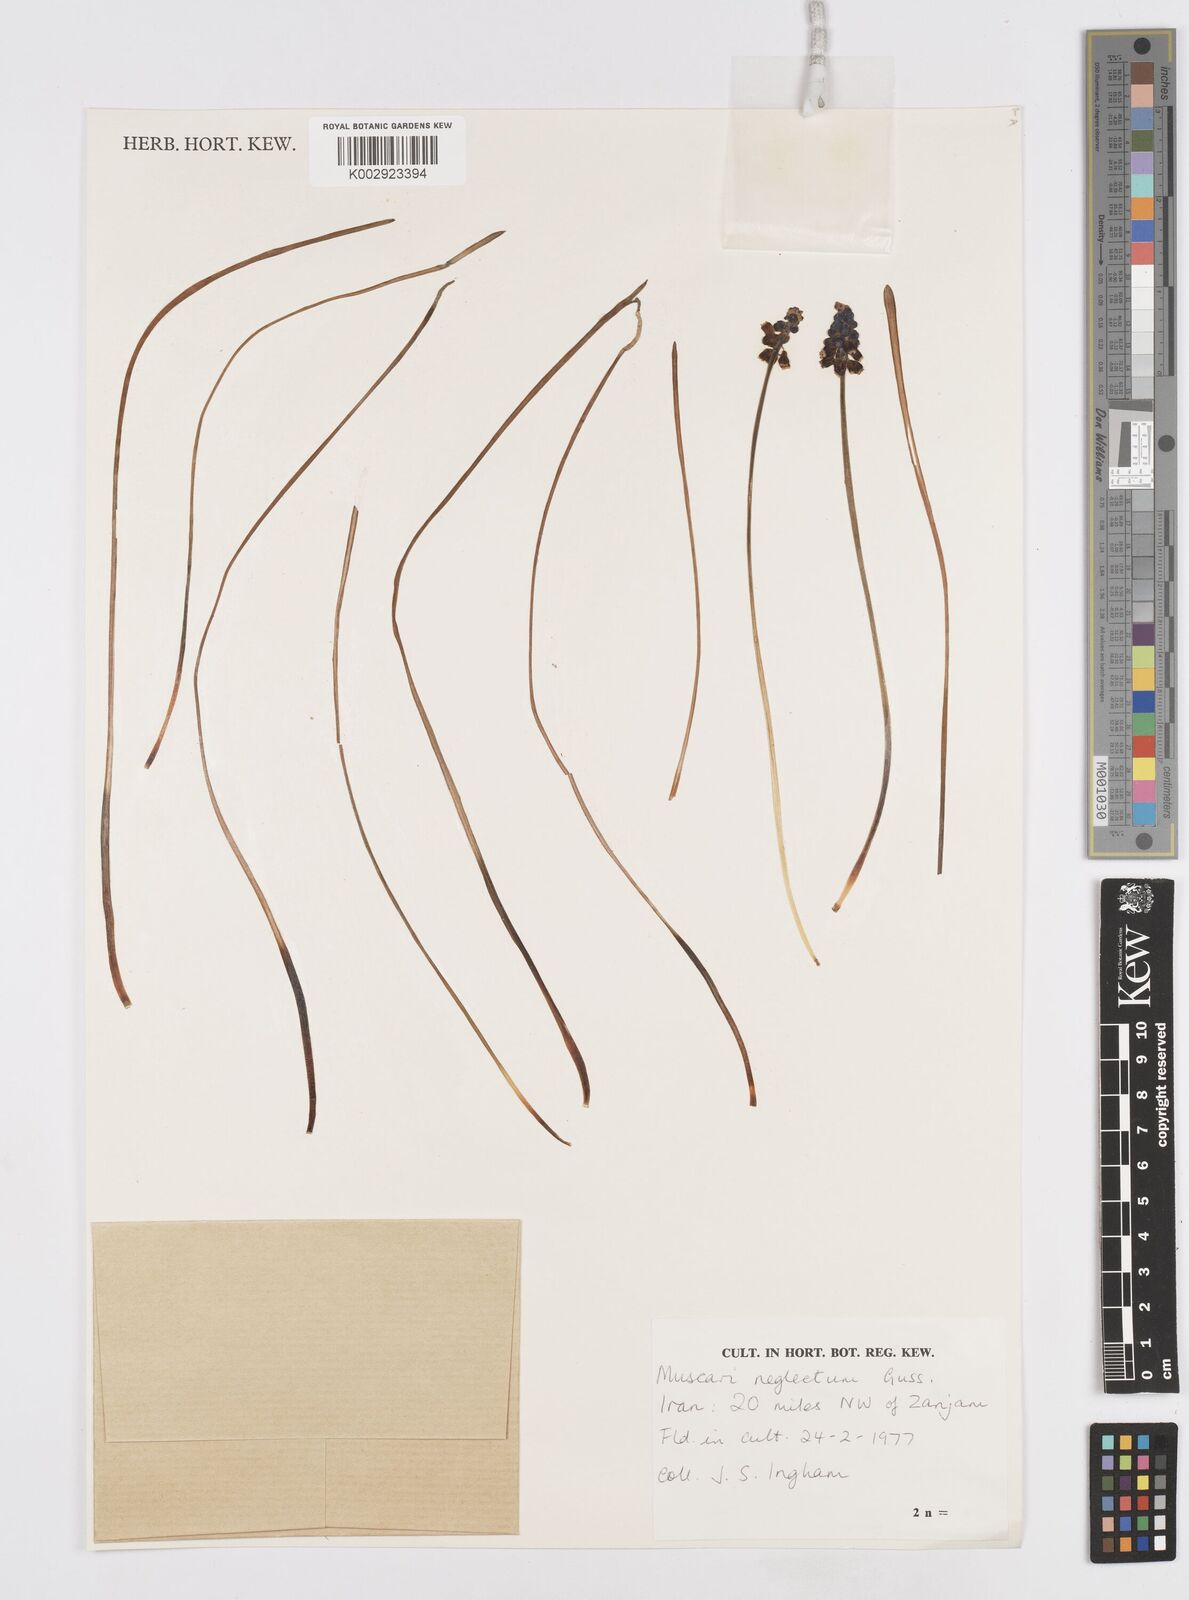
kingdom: Plantae
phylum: Tracheophyta
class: Liliopsida
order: Asparagales
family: Asparagaceae
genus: Muscari
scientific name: Muscari neglectum
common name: Grape-hyacinth
